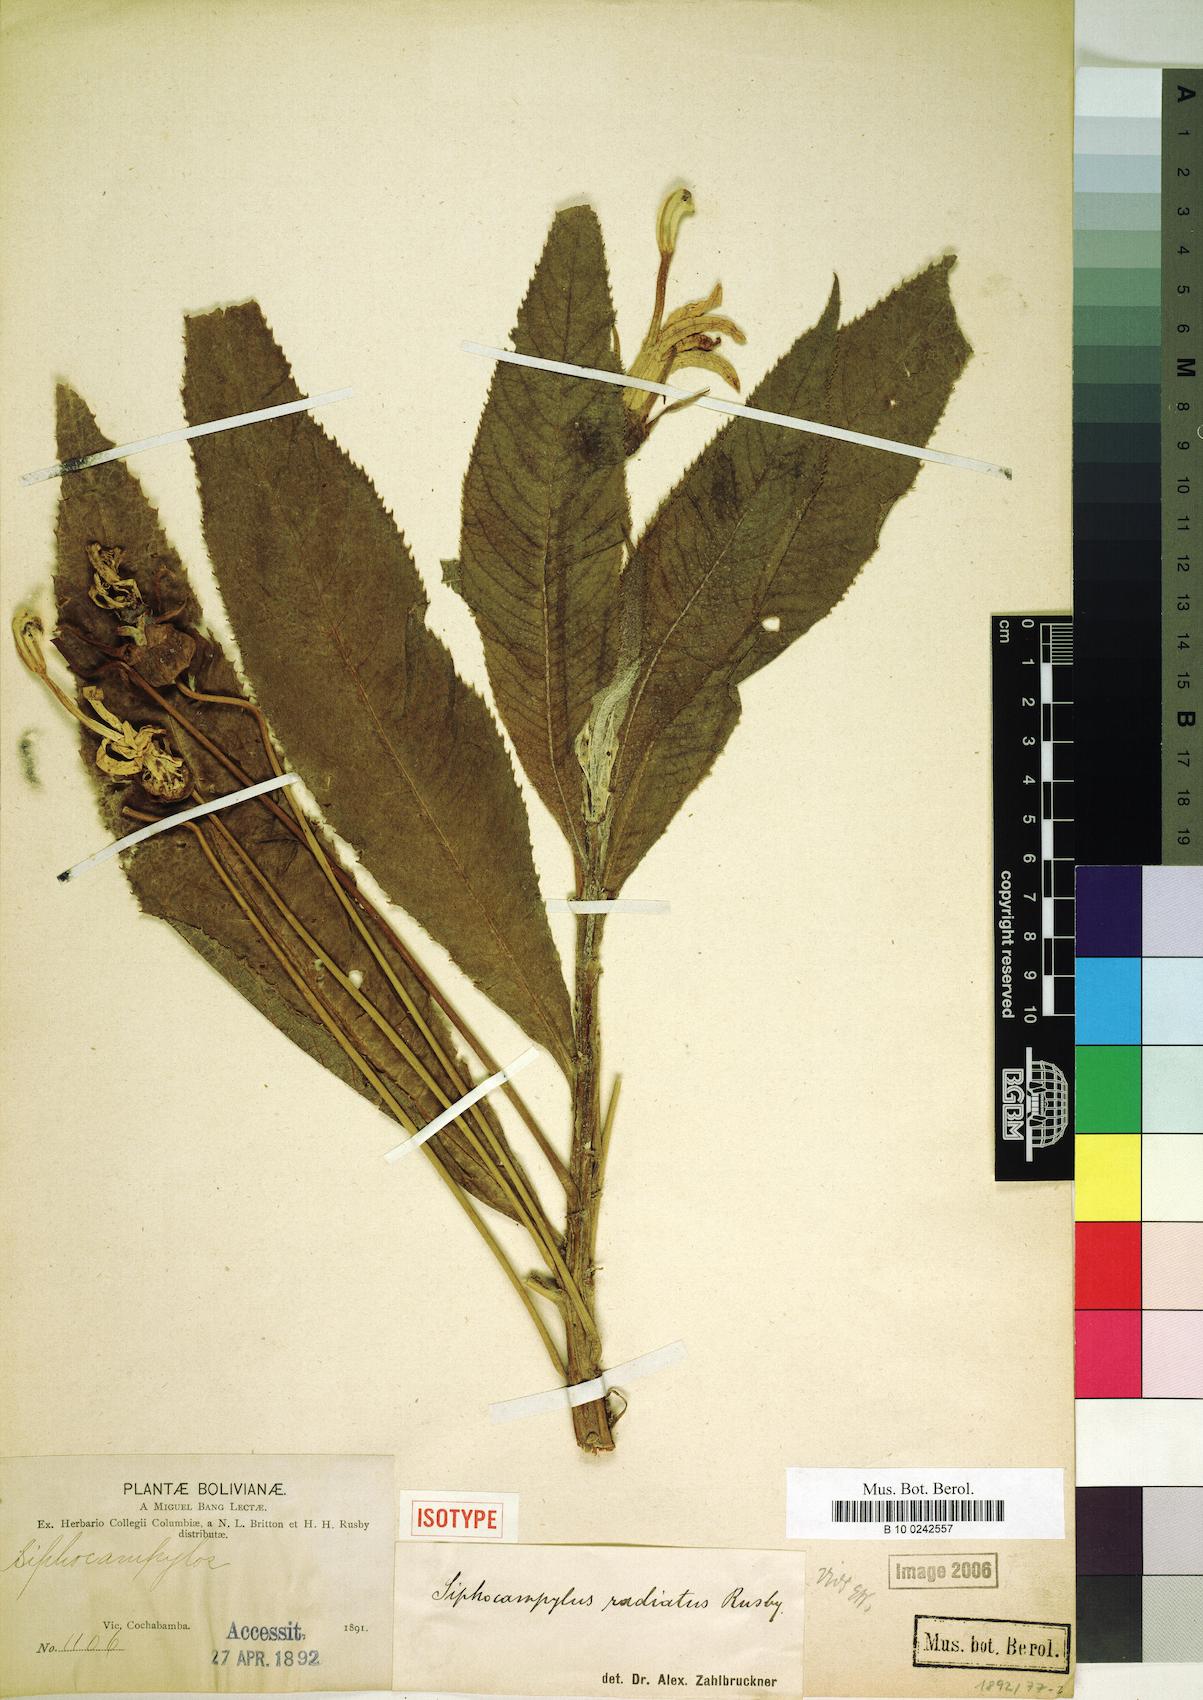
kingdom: Plantae
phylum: Tracheophyta
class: Magnoliopsida
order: Asterales
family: Campanulaceae
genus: Siphocampylus
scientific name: Siphocampylus radiatus
